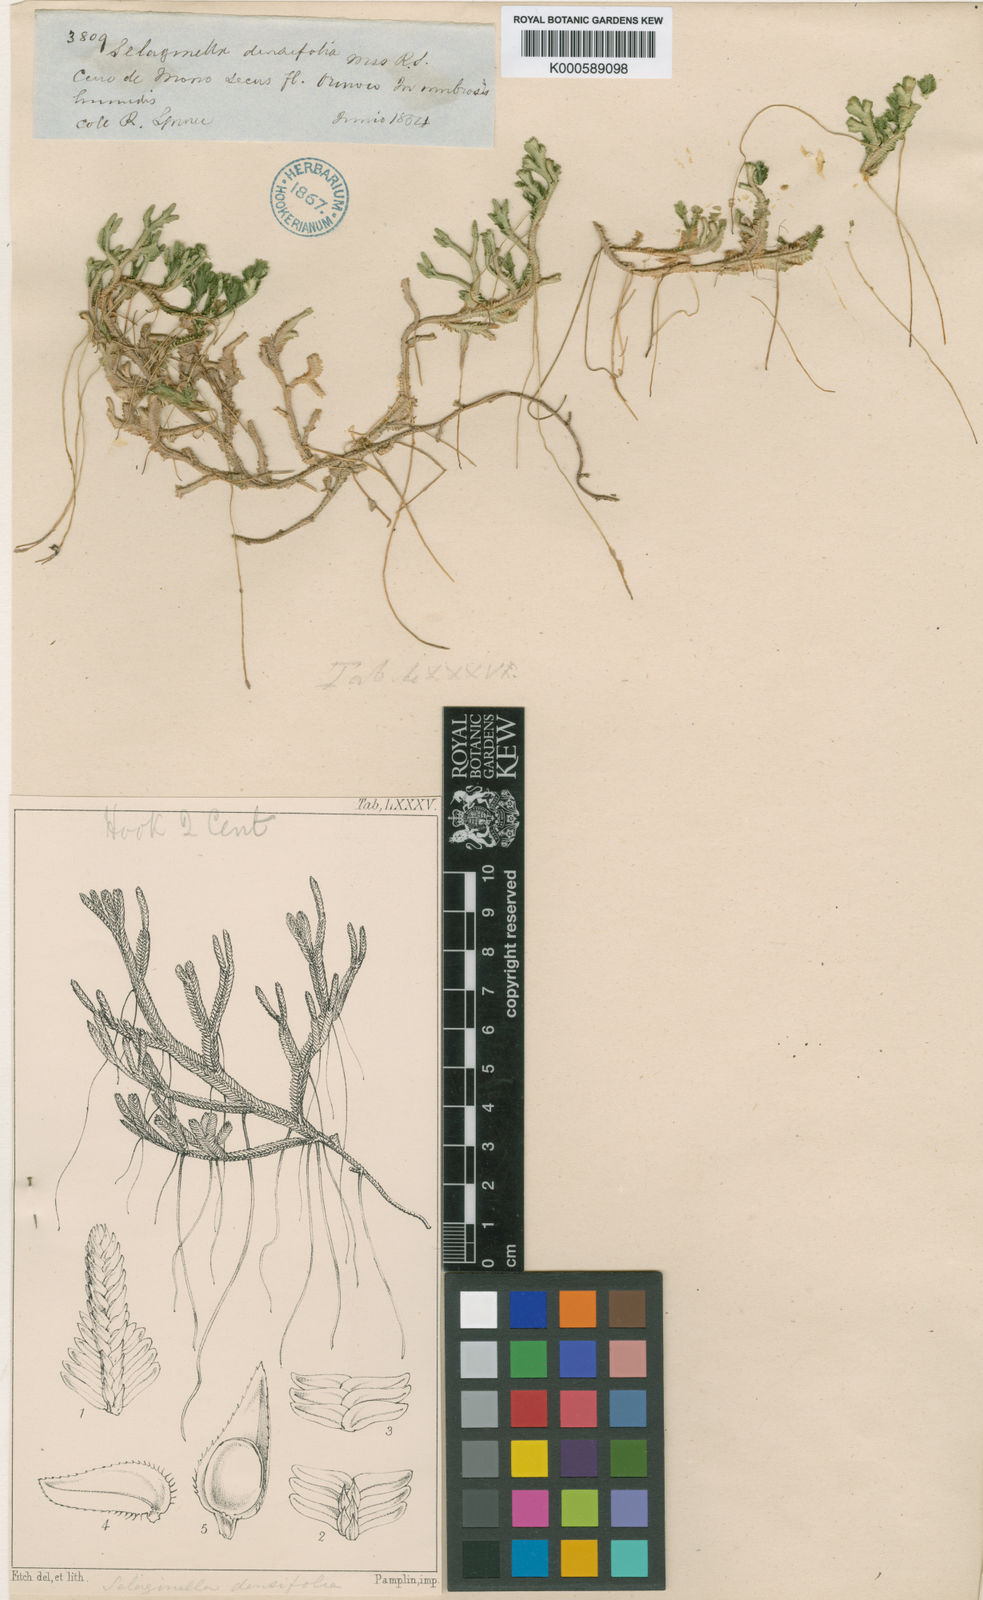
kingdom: Plantae
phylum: Tracheophyta
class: Lycopodiopsida
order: Selaginellales
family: Selaginellaceae
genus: Selaginella
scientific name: Selaginella
